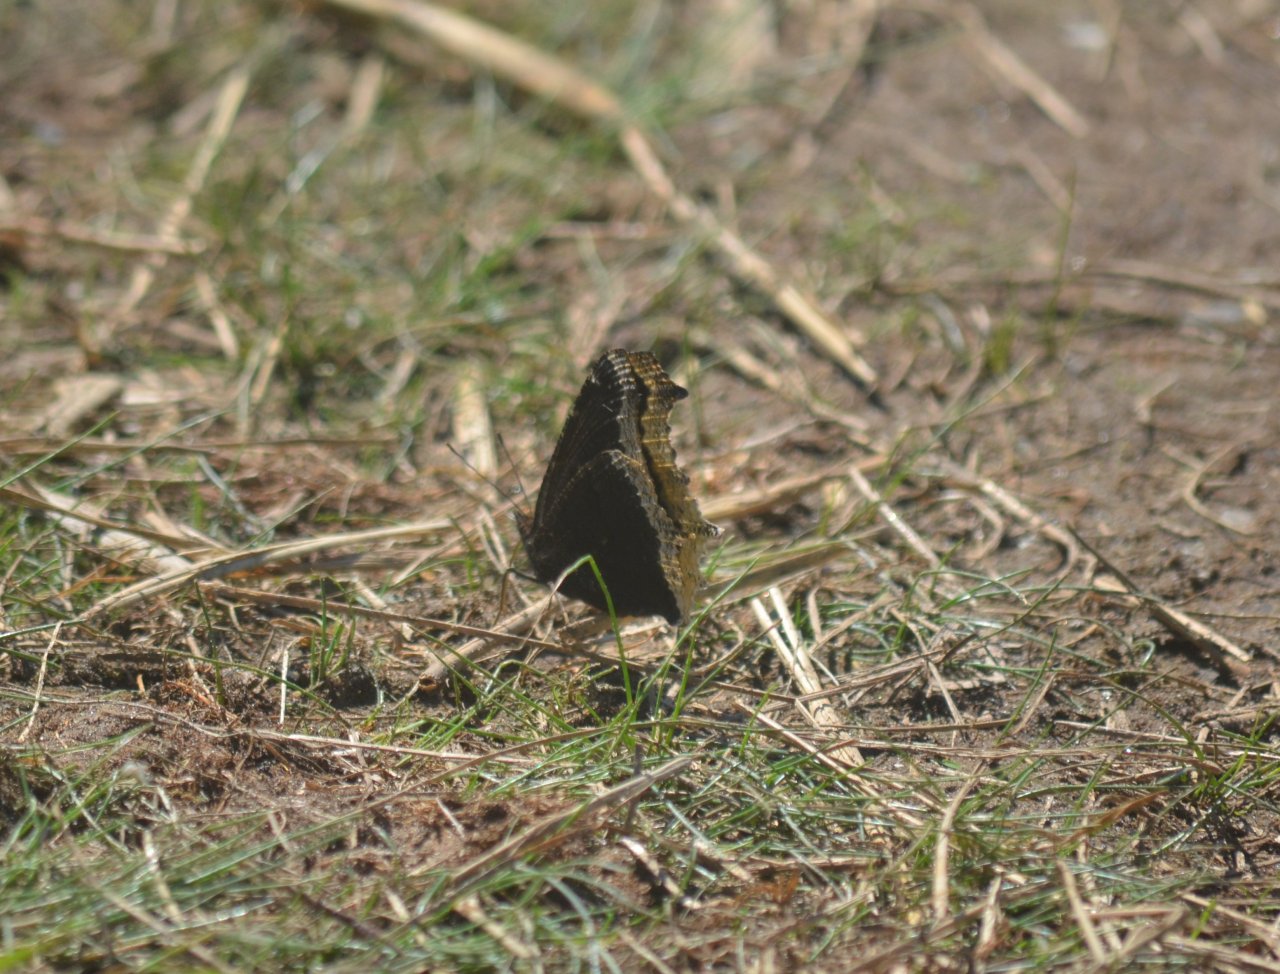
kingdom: Animalia
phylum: Arthropoda
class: Insecta
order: Lepidoptera
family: Nymphalidae
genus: Nymphalis
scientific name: Nymphalis antiopa
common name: Mourning Cloak
